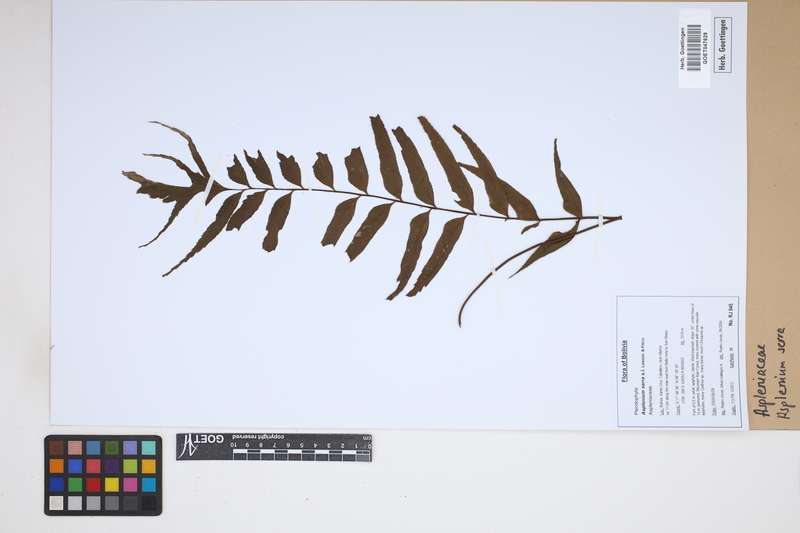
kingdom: Plantae
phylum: Tracheophyta
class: Polypodiopsida
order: Polypodiales
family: Aspleniaceae
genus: Asplenium
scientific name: Asplenium serra
